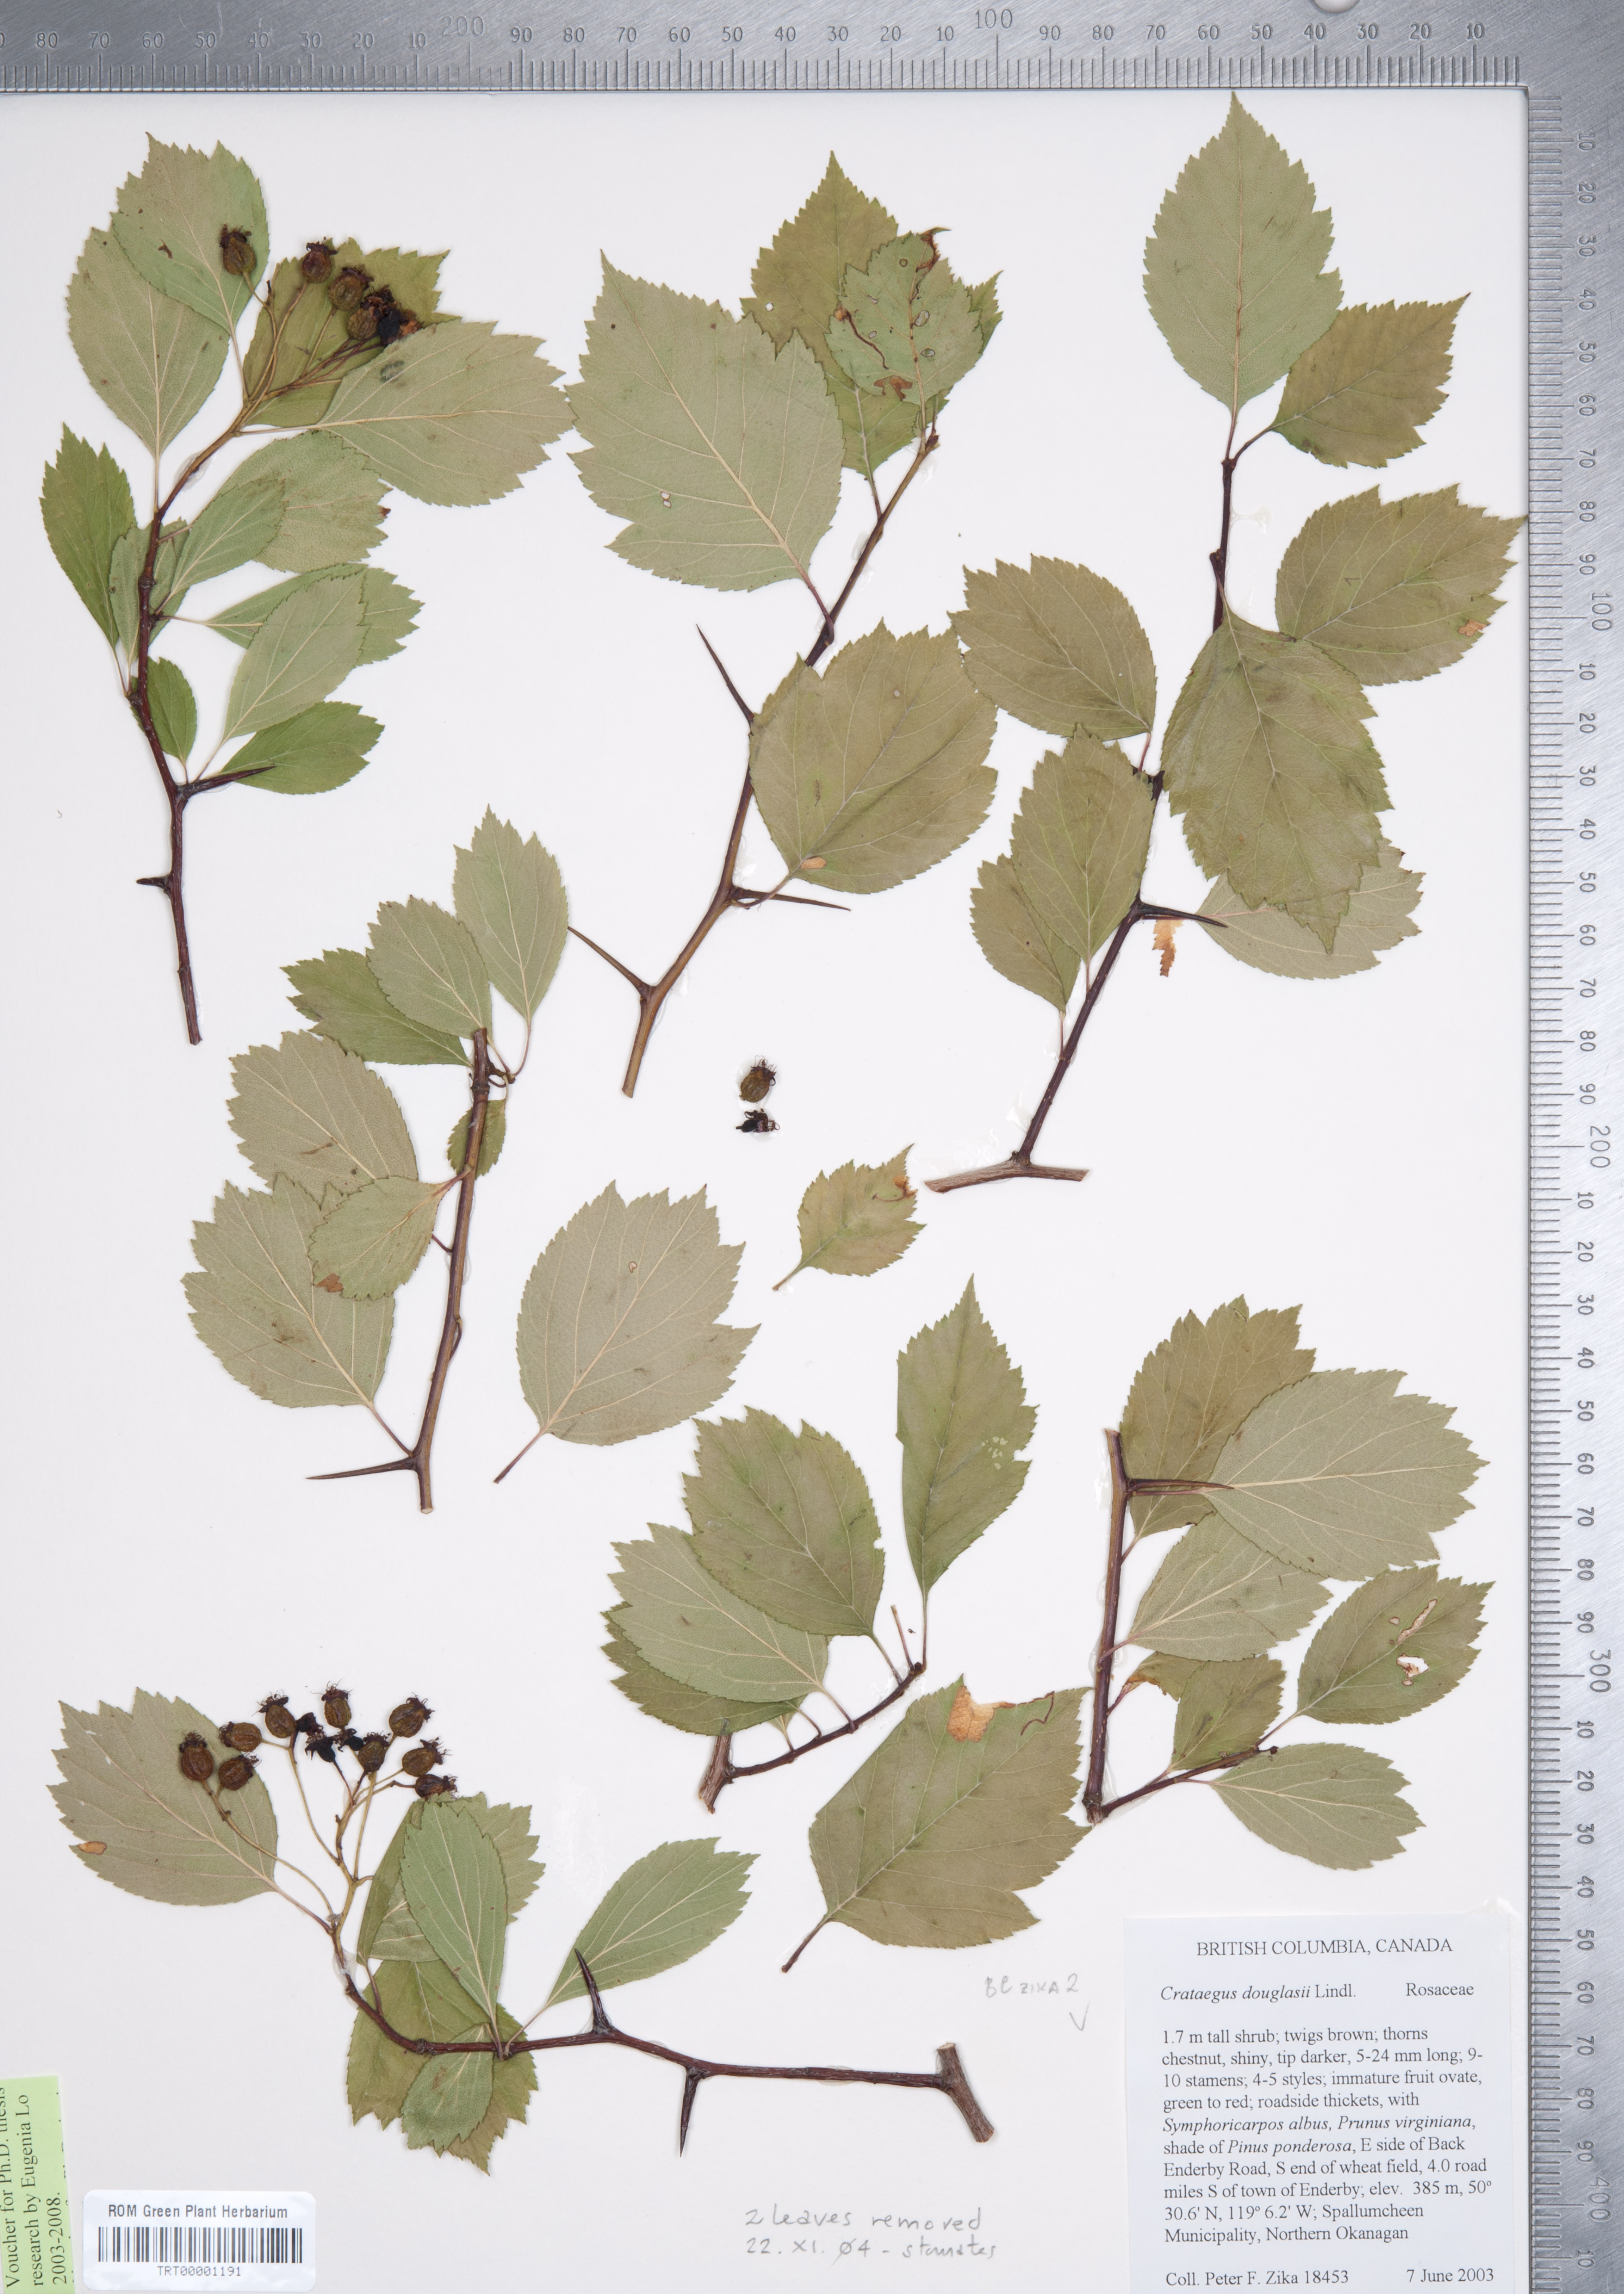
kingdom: Plantae
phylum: Tracheophyta
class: Magnoliopsida
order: Rosales
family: Rosaceae
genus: Crataegus
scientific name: Crataegus douglasii
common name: Black hawthorn
